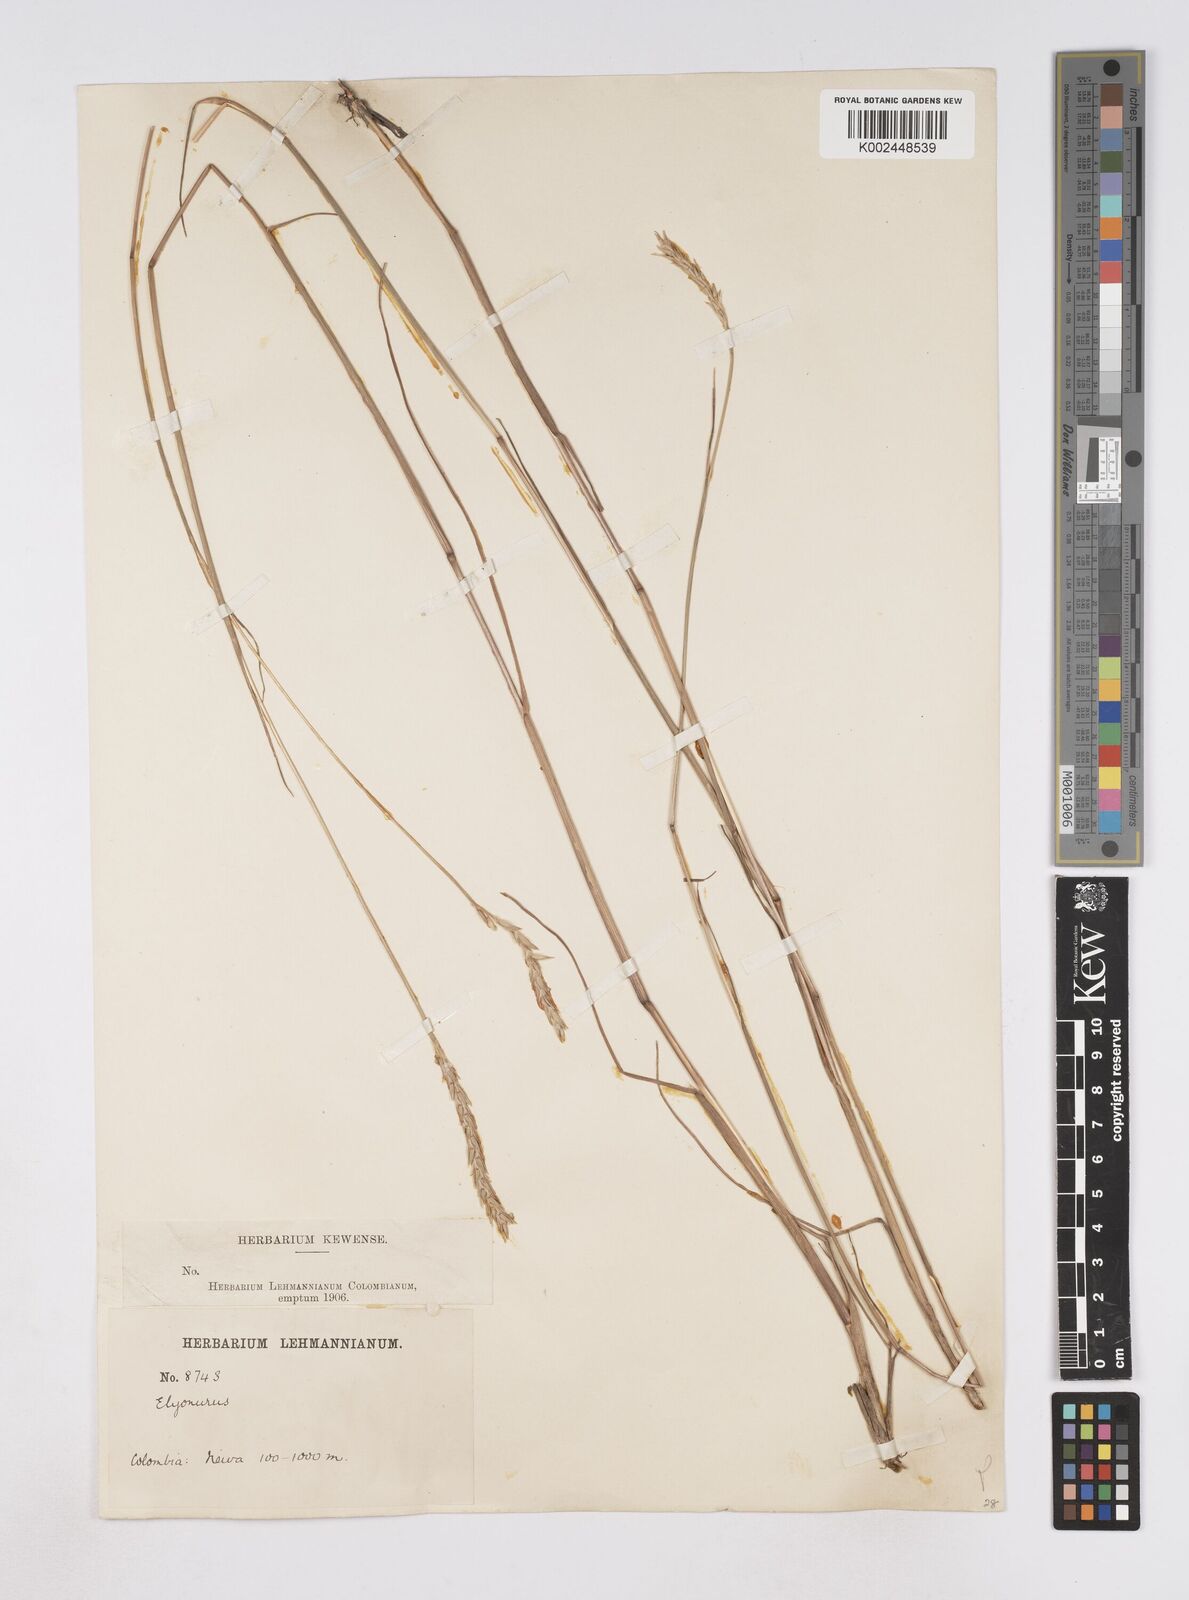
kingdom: Plantae
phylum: Tracheophyta
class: Liliopsida
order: Poales
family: Poaceae
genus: Elionurus
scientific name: Elionurus muticus
